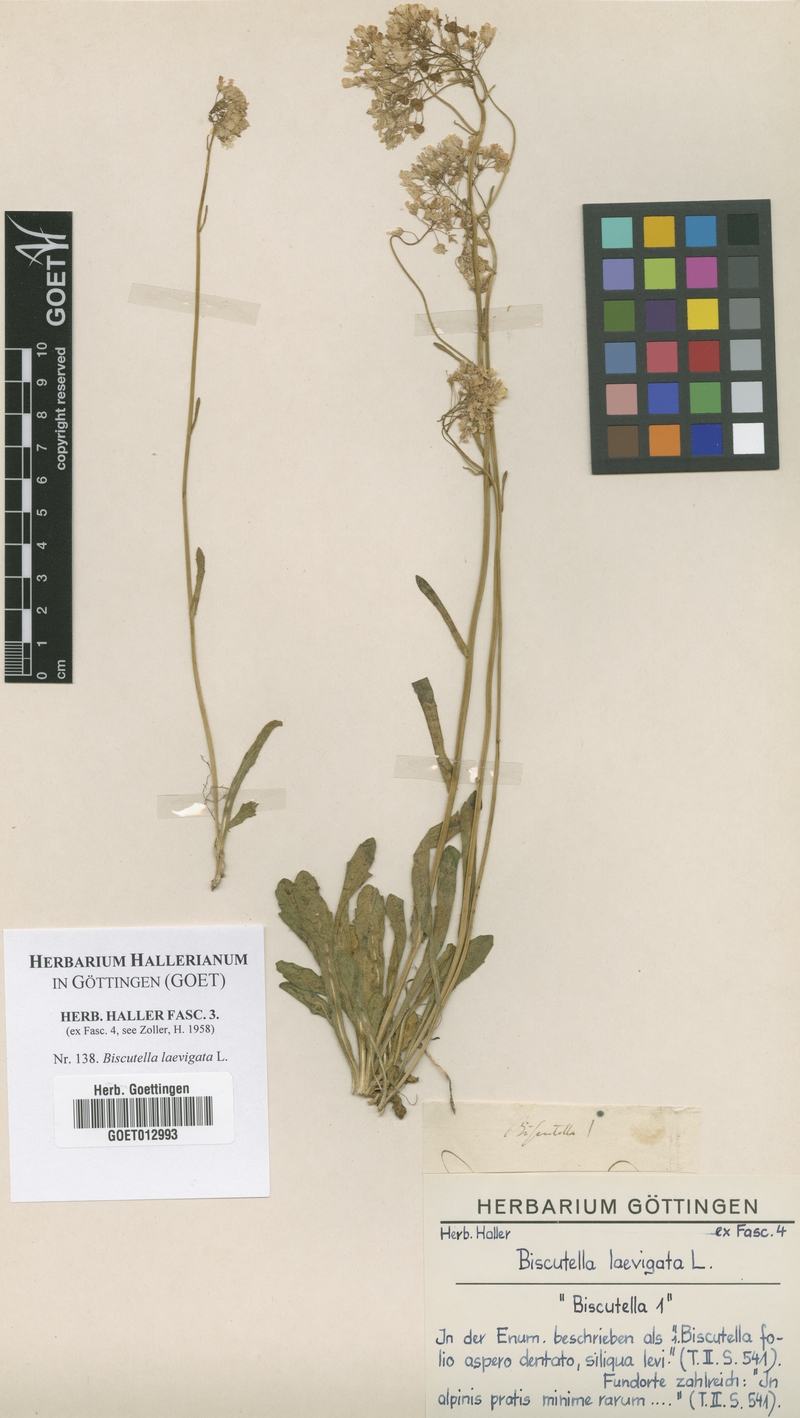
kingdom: Plantae
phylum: Tracheophyta
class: Magnoliopsida
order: Brassicales
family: Brassicaceae
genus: Biscutella
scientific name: Biscutella laevigata
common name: Buckler mustard
